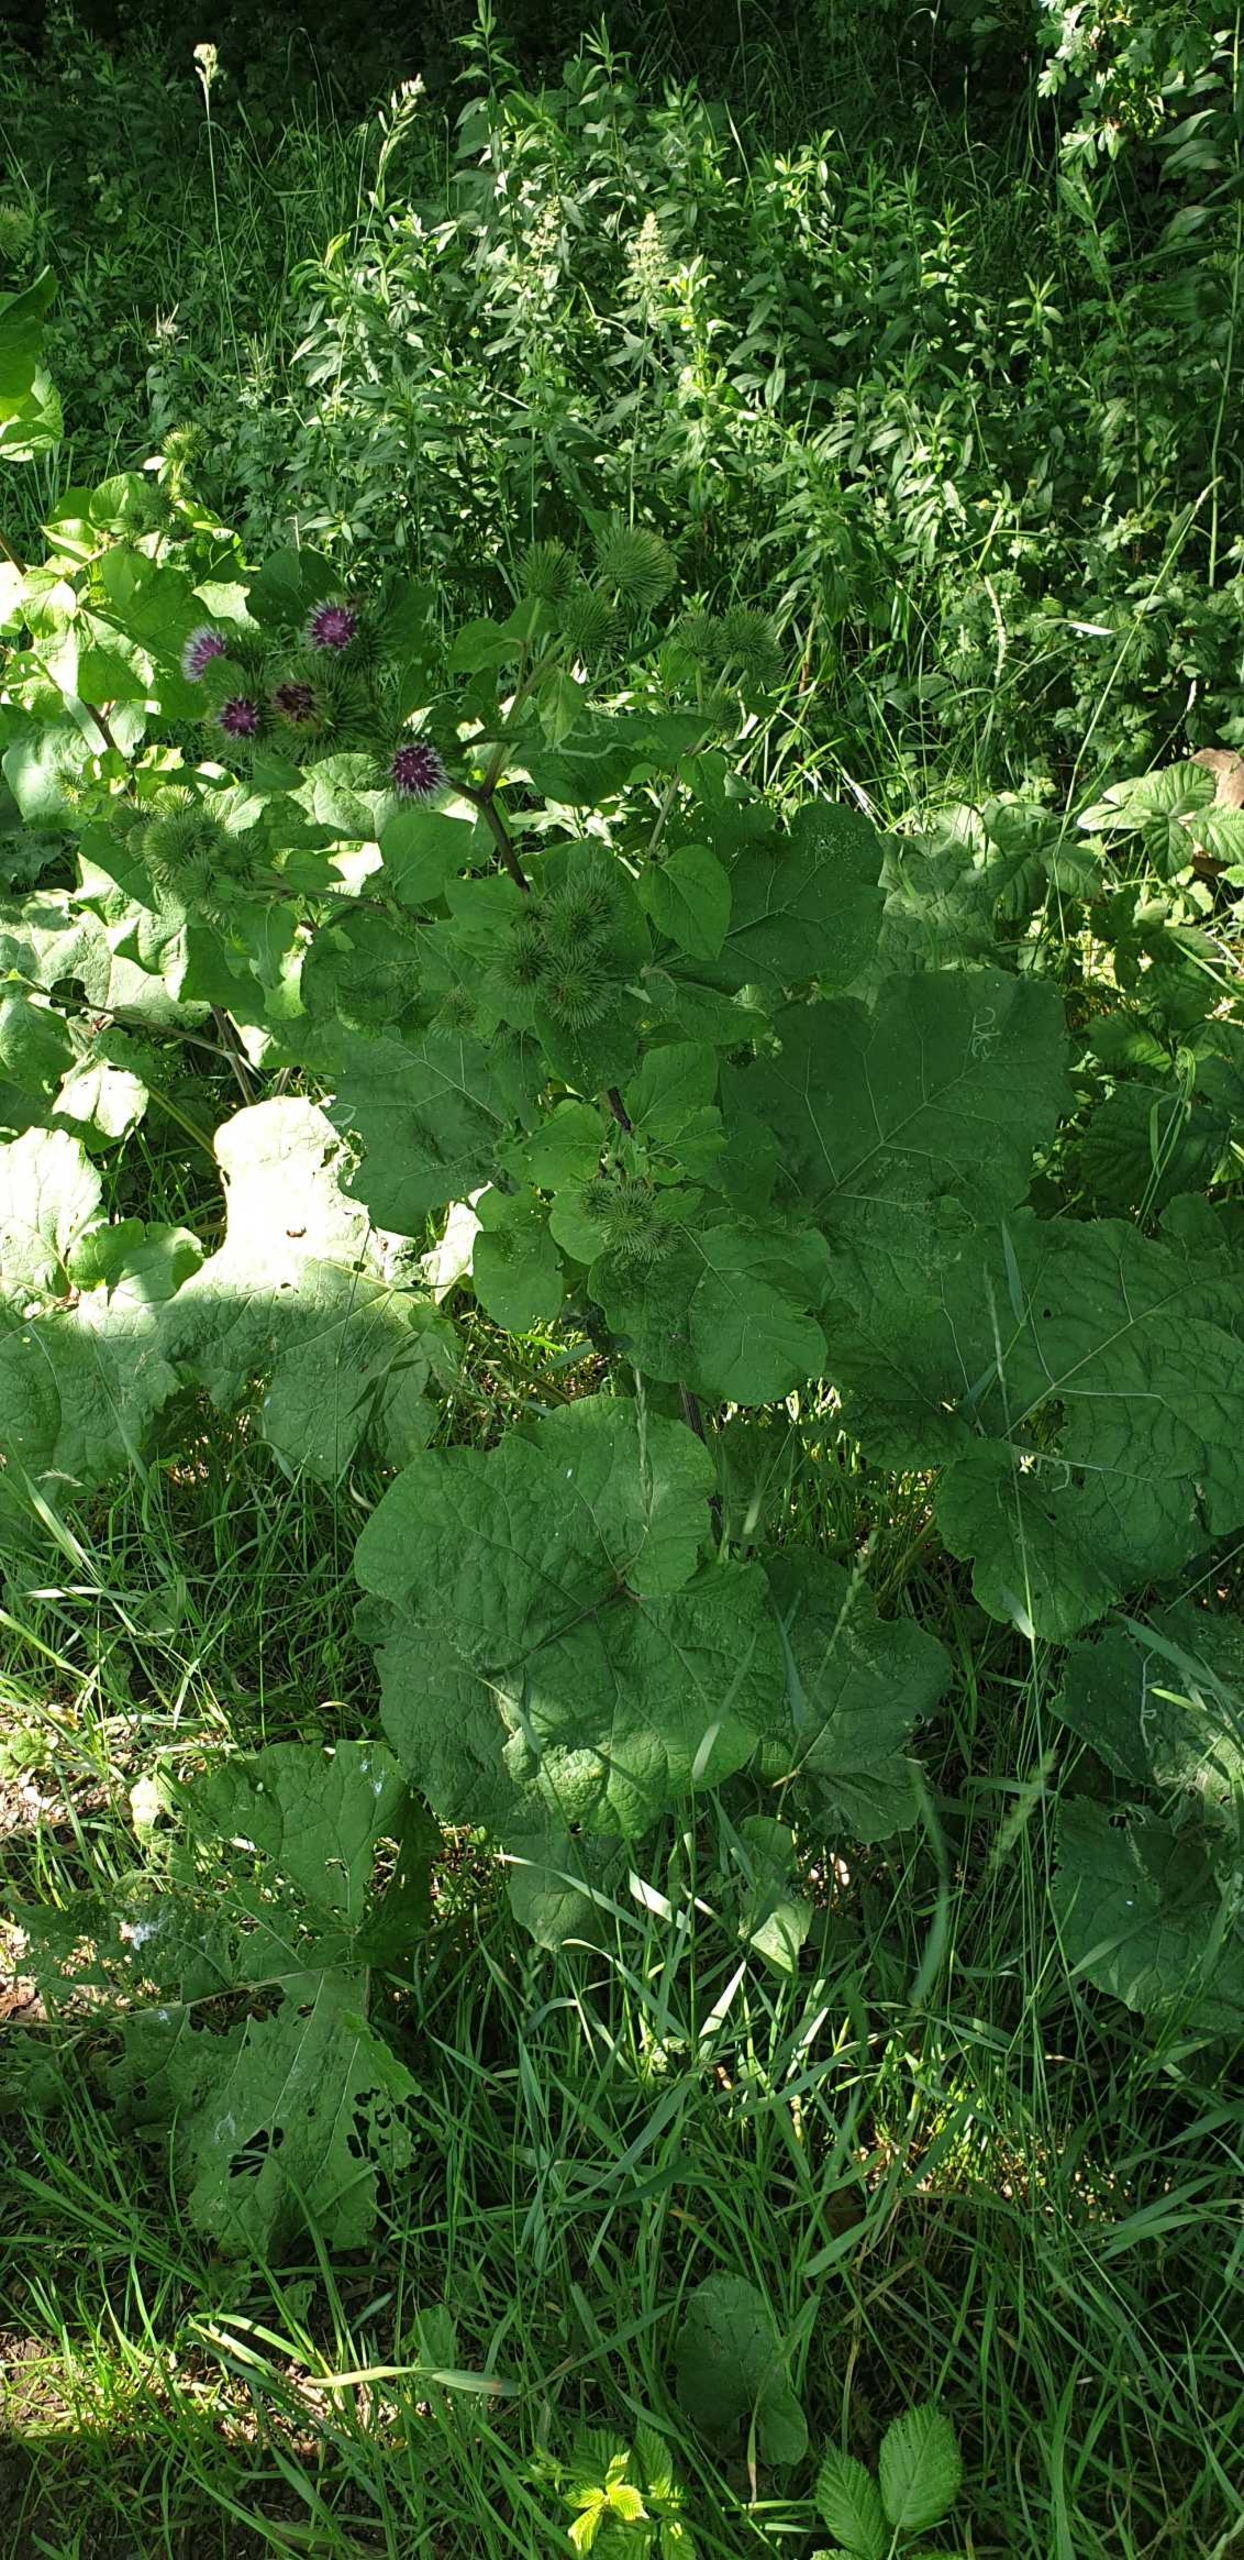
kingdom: Plantae
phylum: Tracheophyta
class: Magnoliopsida
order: Asterales
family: Asteraceae
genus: Arctium
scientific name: Arctium lappa
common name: Glat burre
